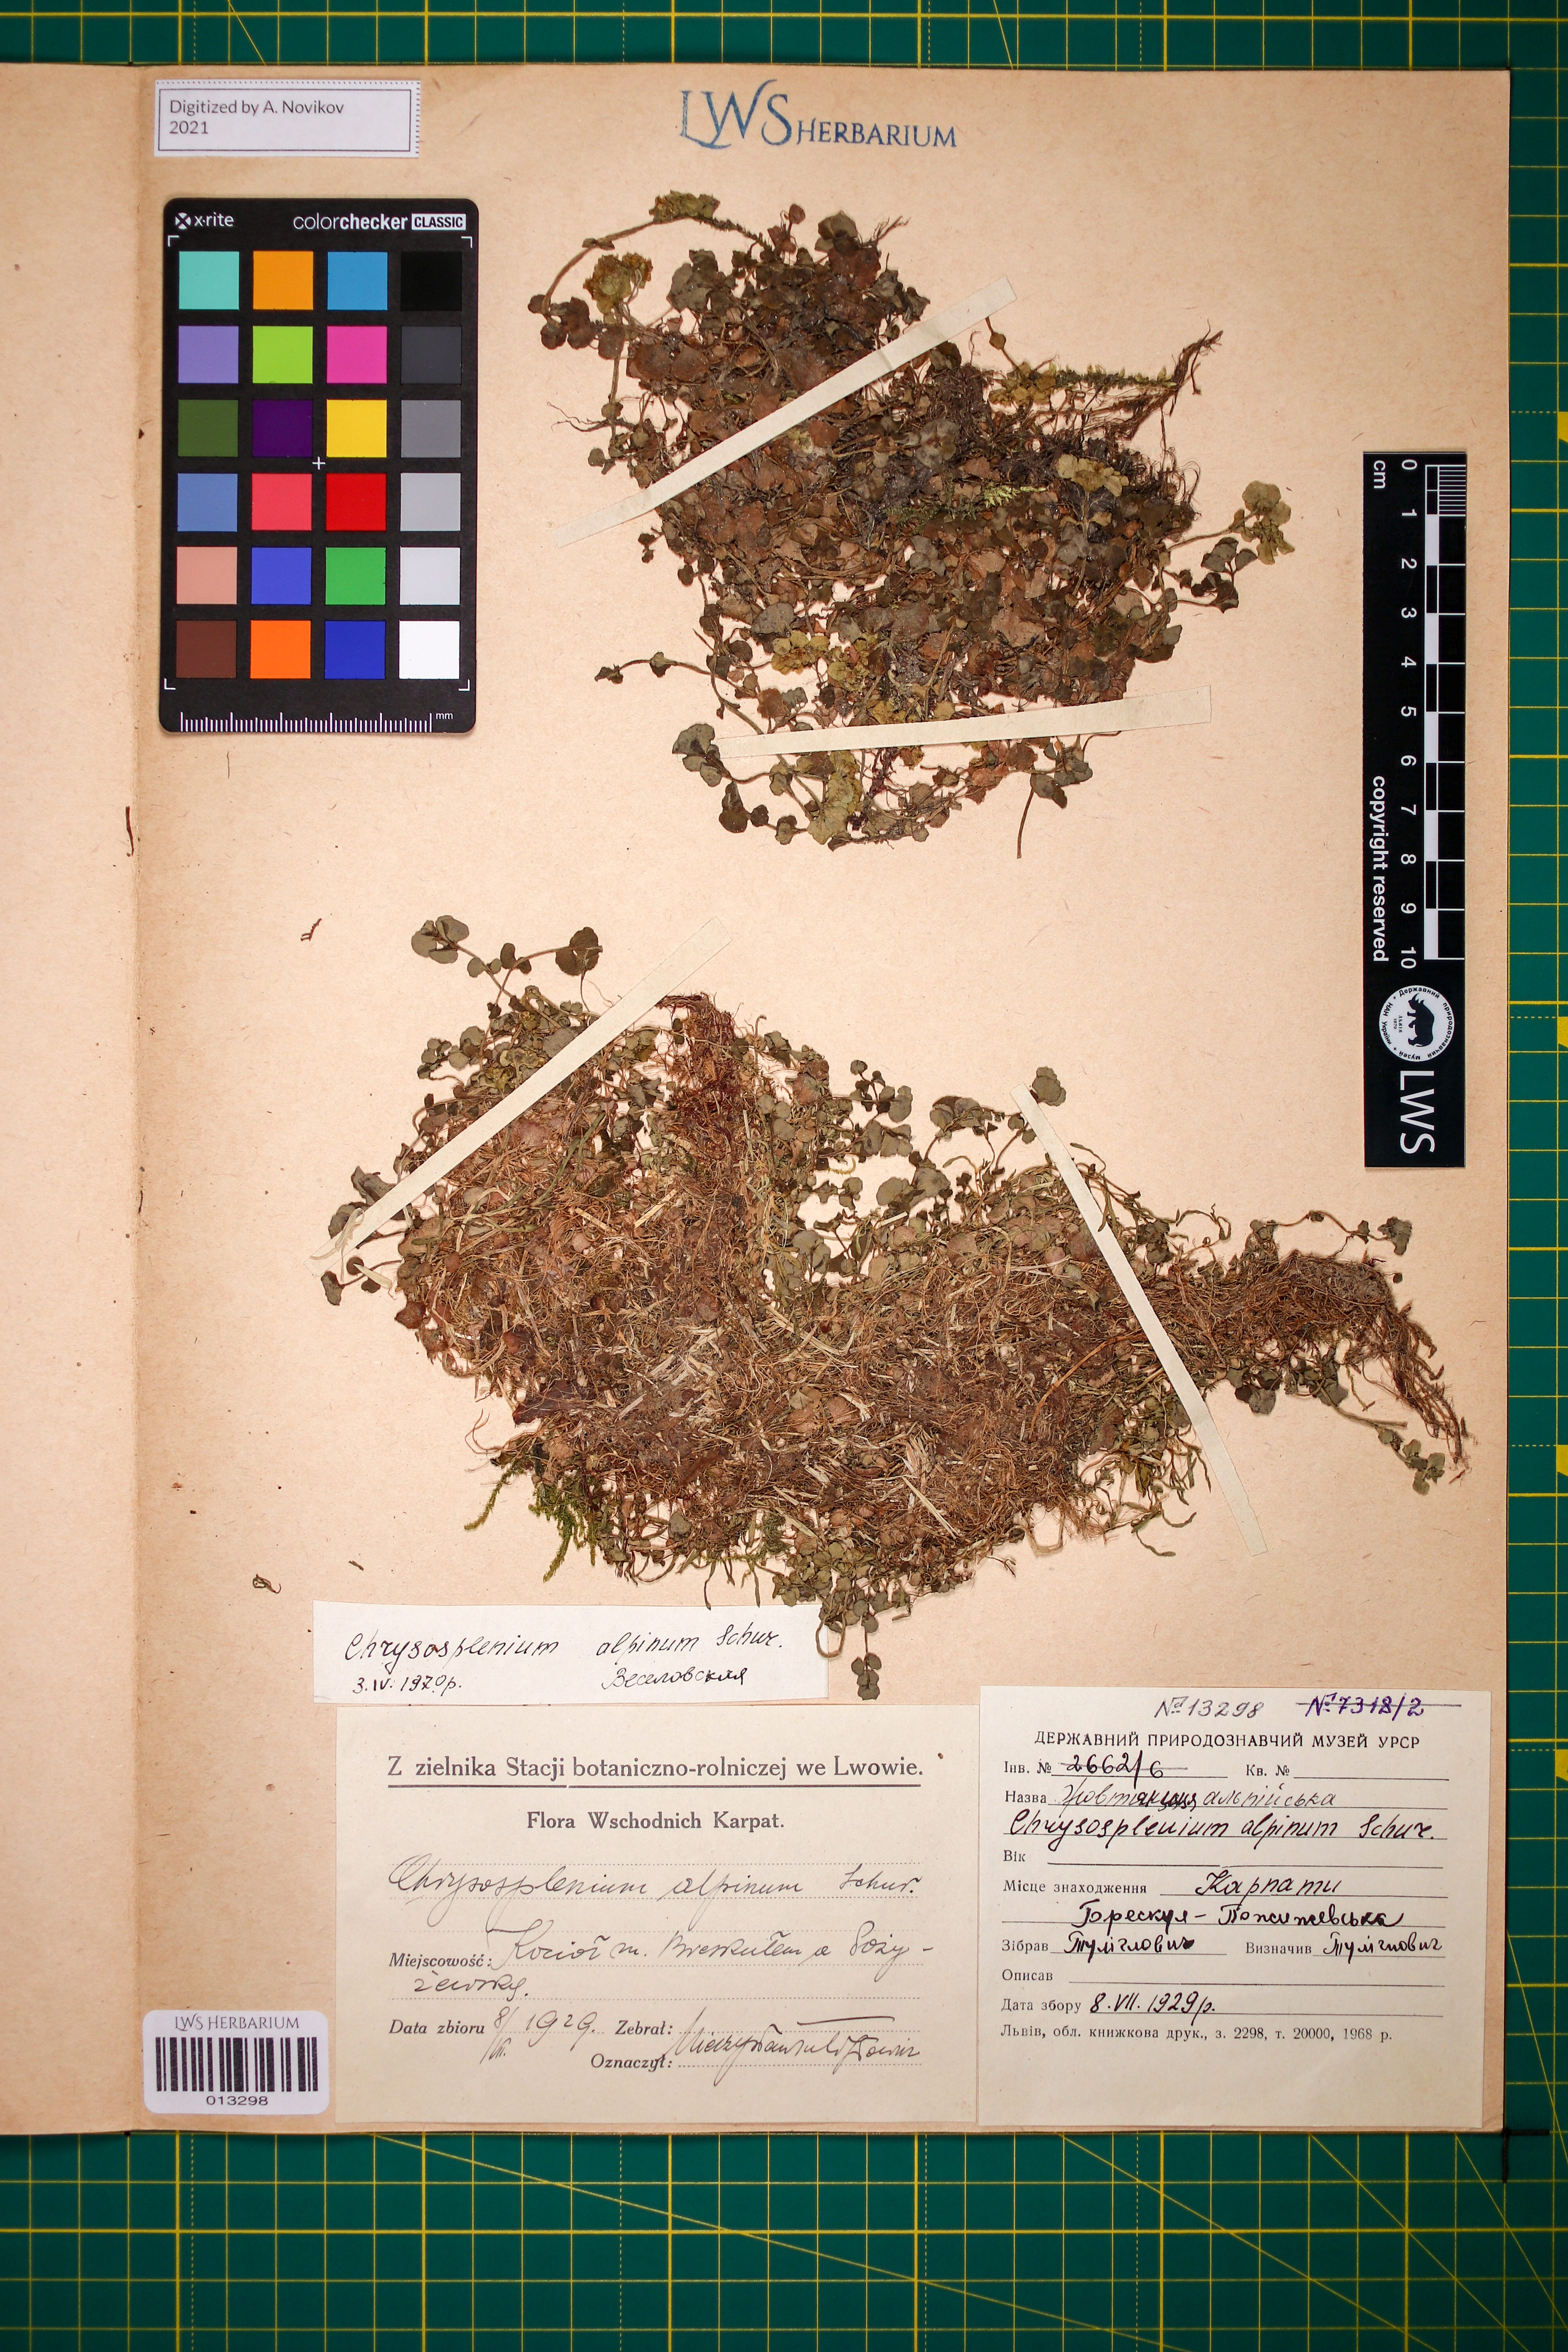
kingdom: Plantae
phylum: Tracheophyta
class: Magnoliopsida
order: Saxifragales
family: Saxifragaceae
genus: Chrysosplenium
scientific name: Chrysosplenium alpinum
